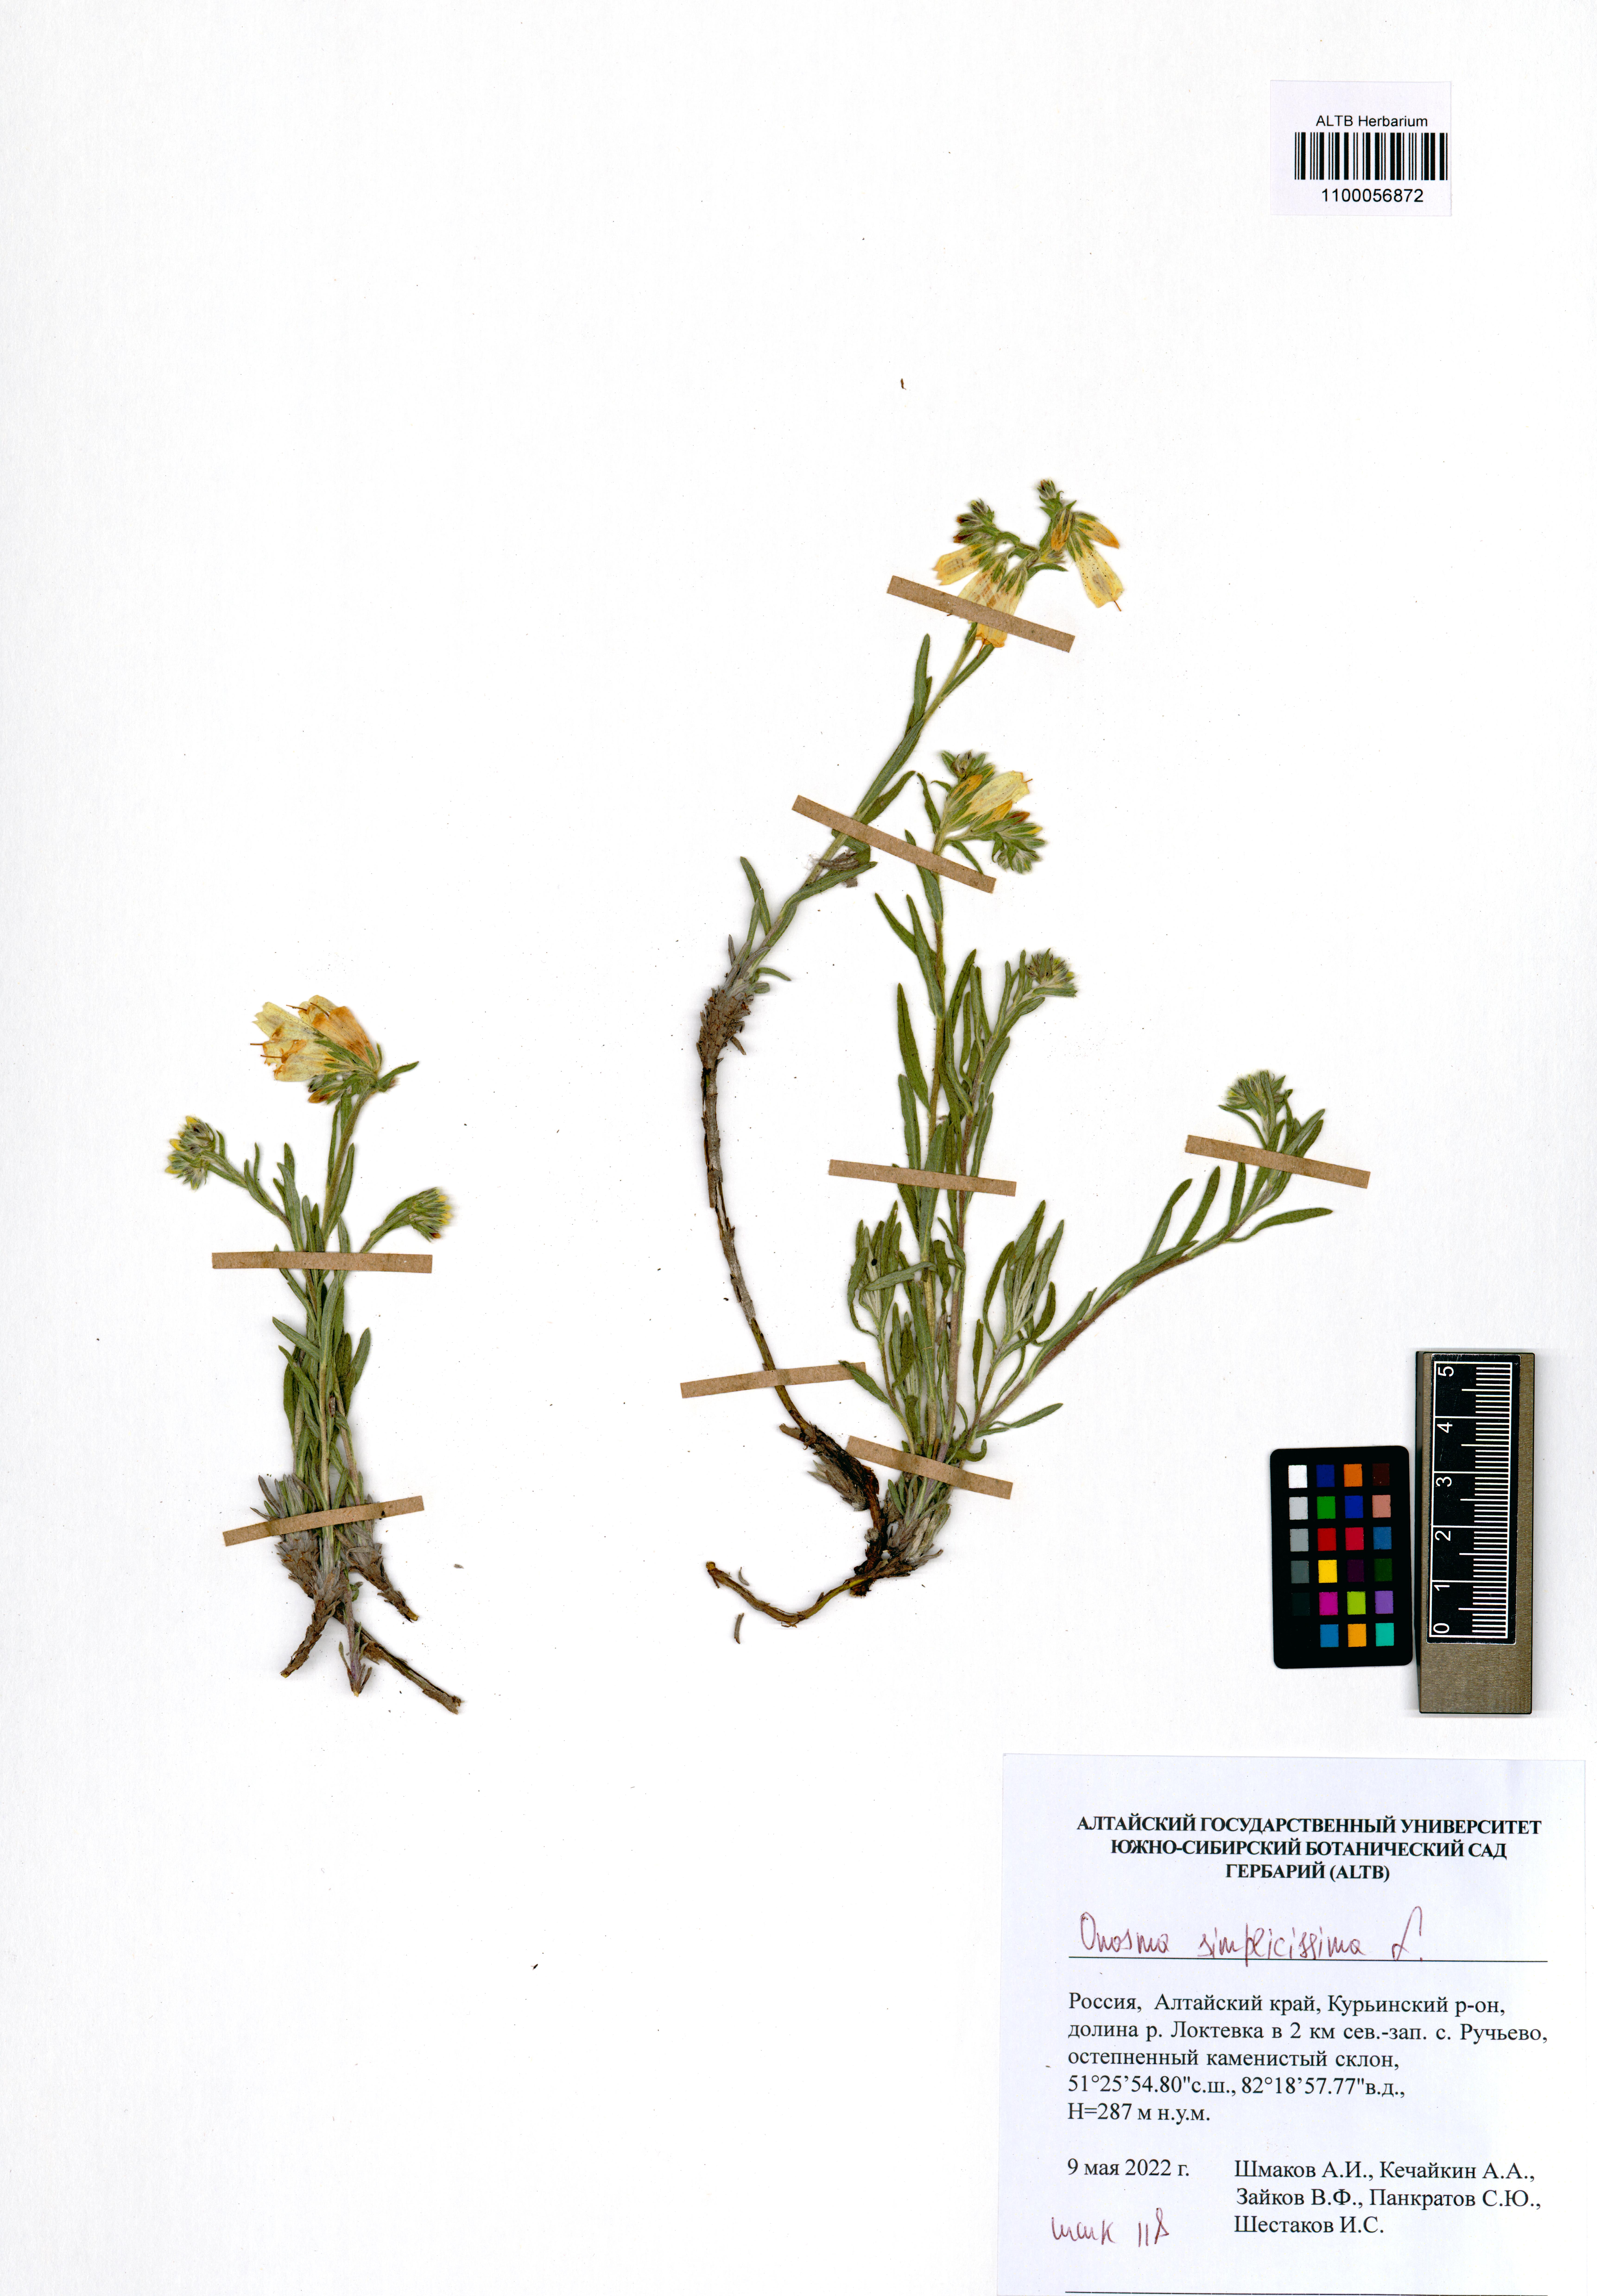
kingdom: Plantae
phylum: Tracheophyta
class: Magnoliopsida
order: Boraginales
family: Boraginaceae
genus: Onosma
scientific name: Onosma simplicissima
